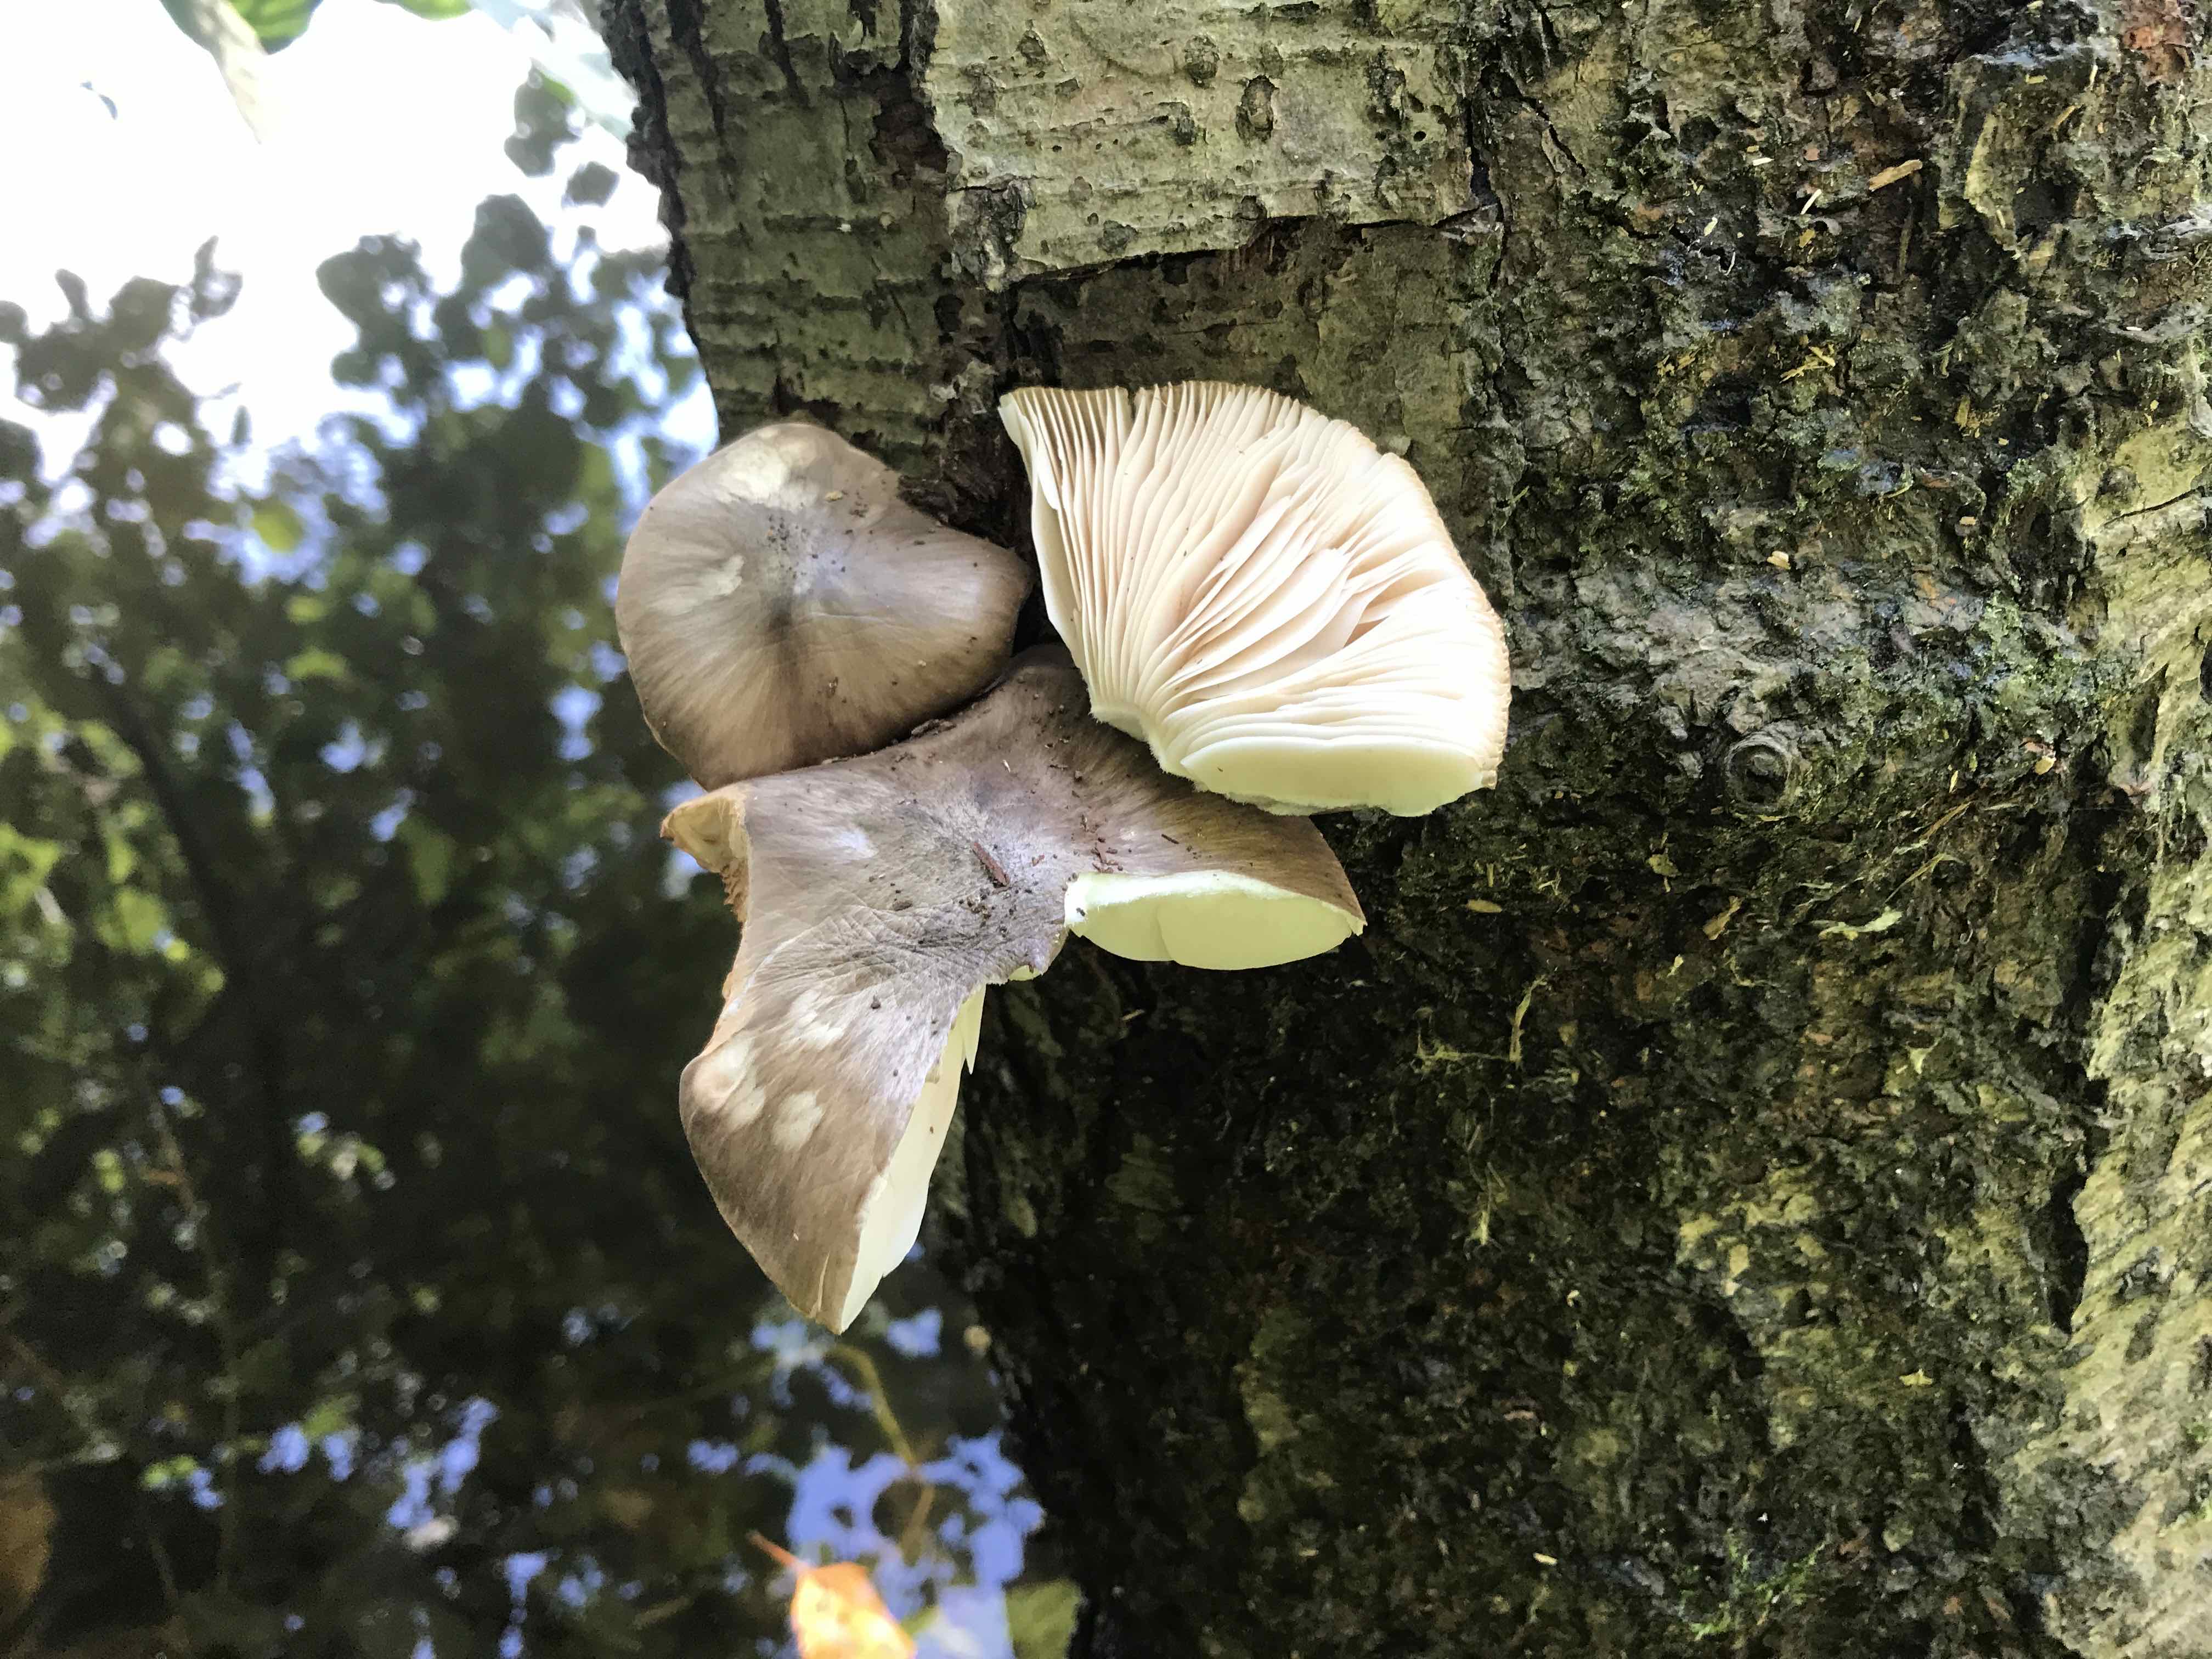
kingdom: Fungi
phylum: Basidiomycota
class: Agaricomycetes
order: Agaricales
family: Pluteaceae
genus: Pluteus
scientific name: Pluteus cervinus
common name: sodfarvet skærmhat
